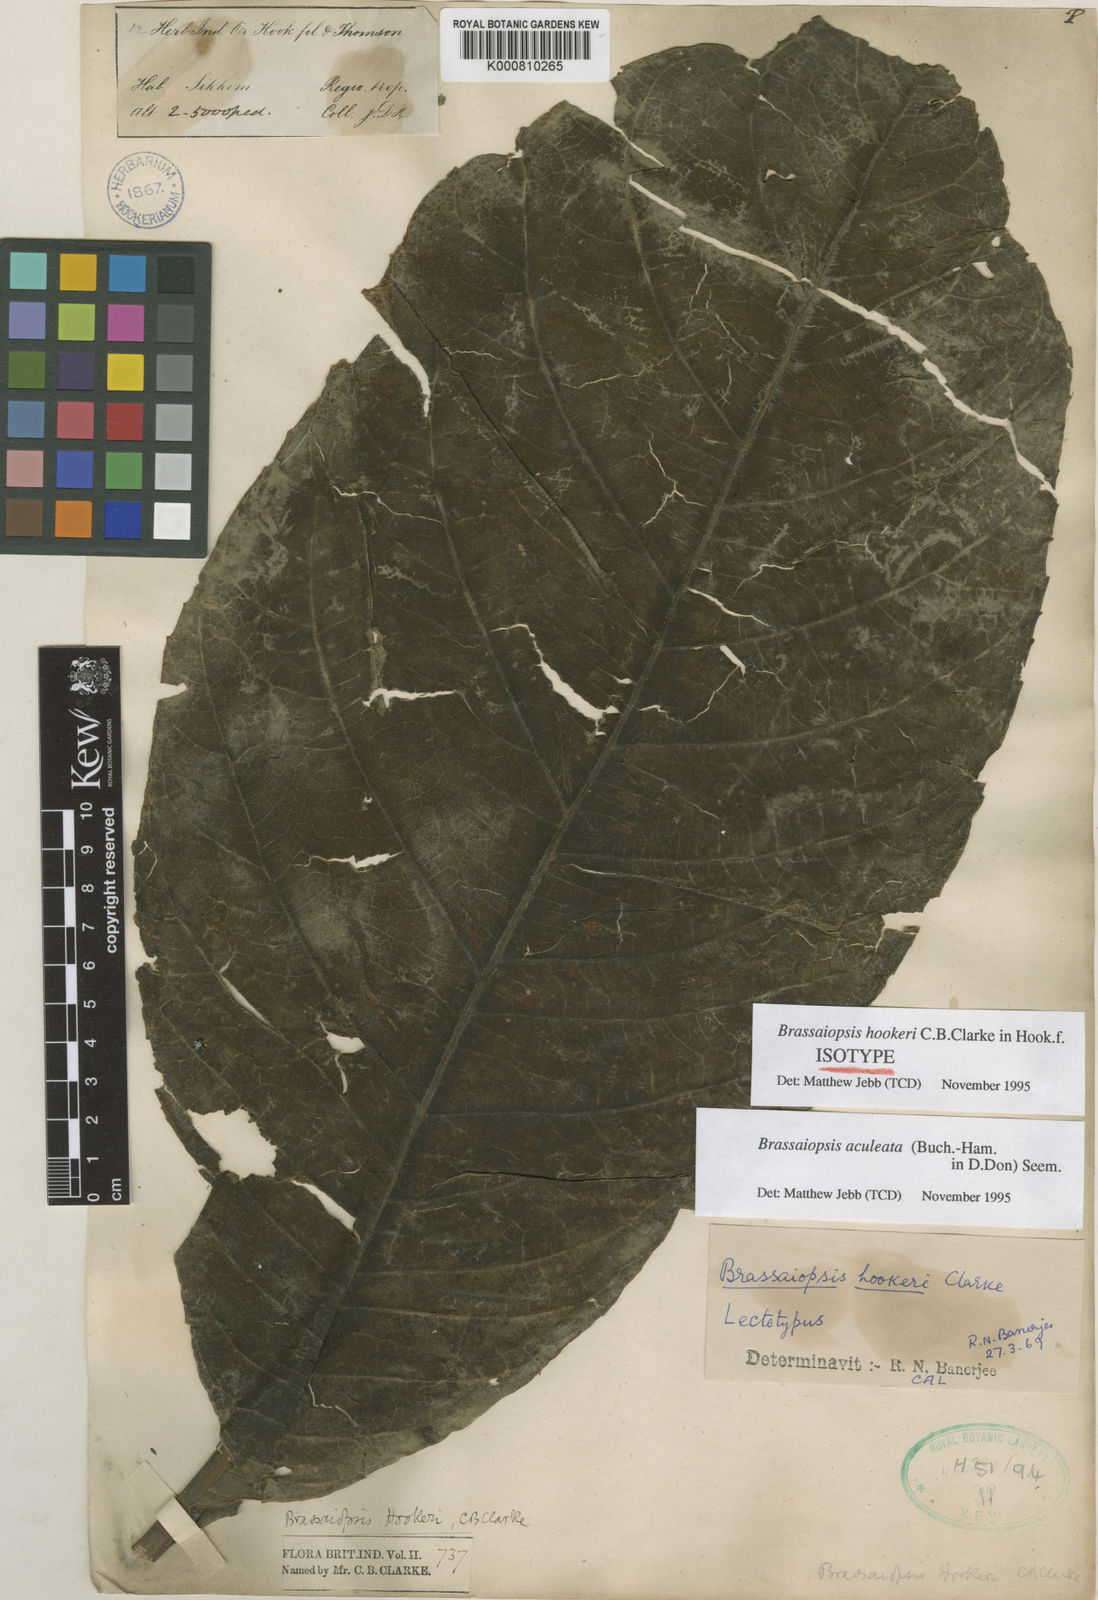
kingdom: Plantae
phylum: Tracheophyta
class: Magnoliopsida
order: Apiales
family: Araliaceae
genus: Brassaiopsis
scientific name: Brassaiopsis aculeata
